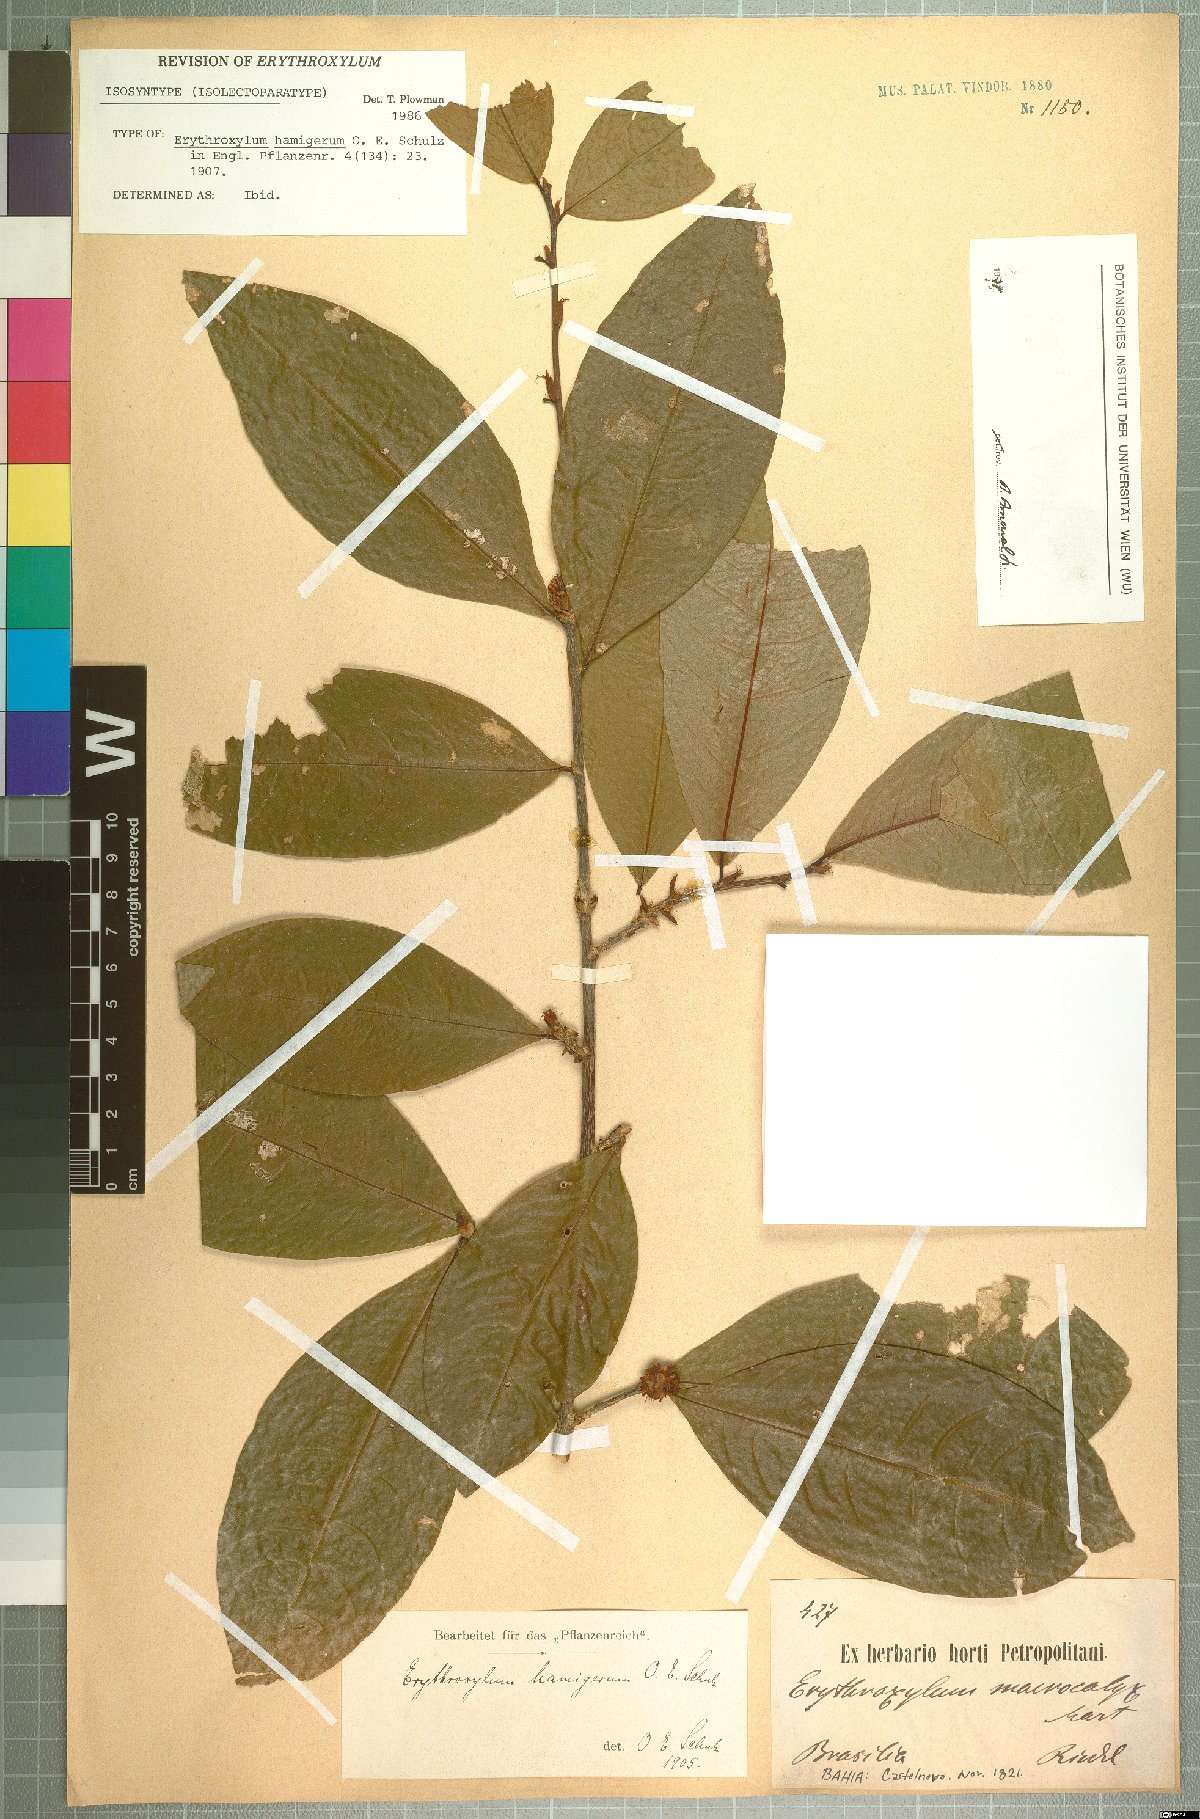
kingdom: Plantae
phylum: Tracheophyta
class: Magnoliopsida
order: Malpighiales
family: Erythroxylaceae
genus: Erythroxylum
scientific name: Erythroxylum hamigerum
